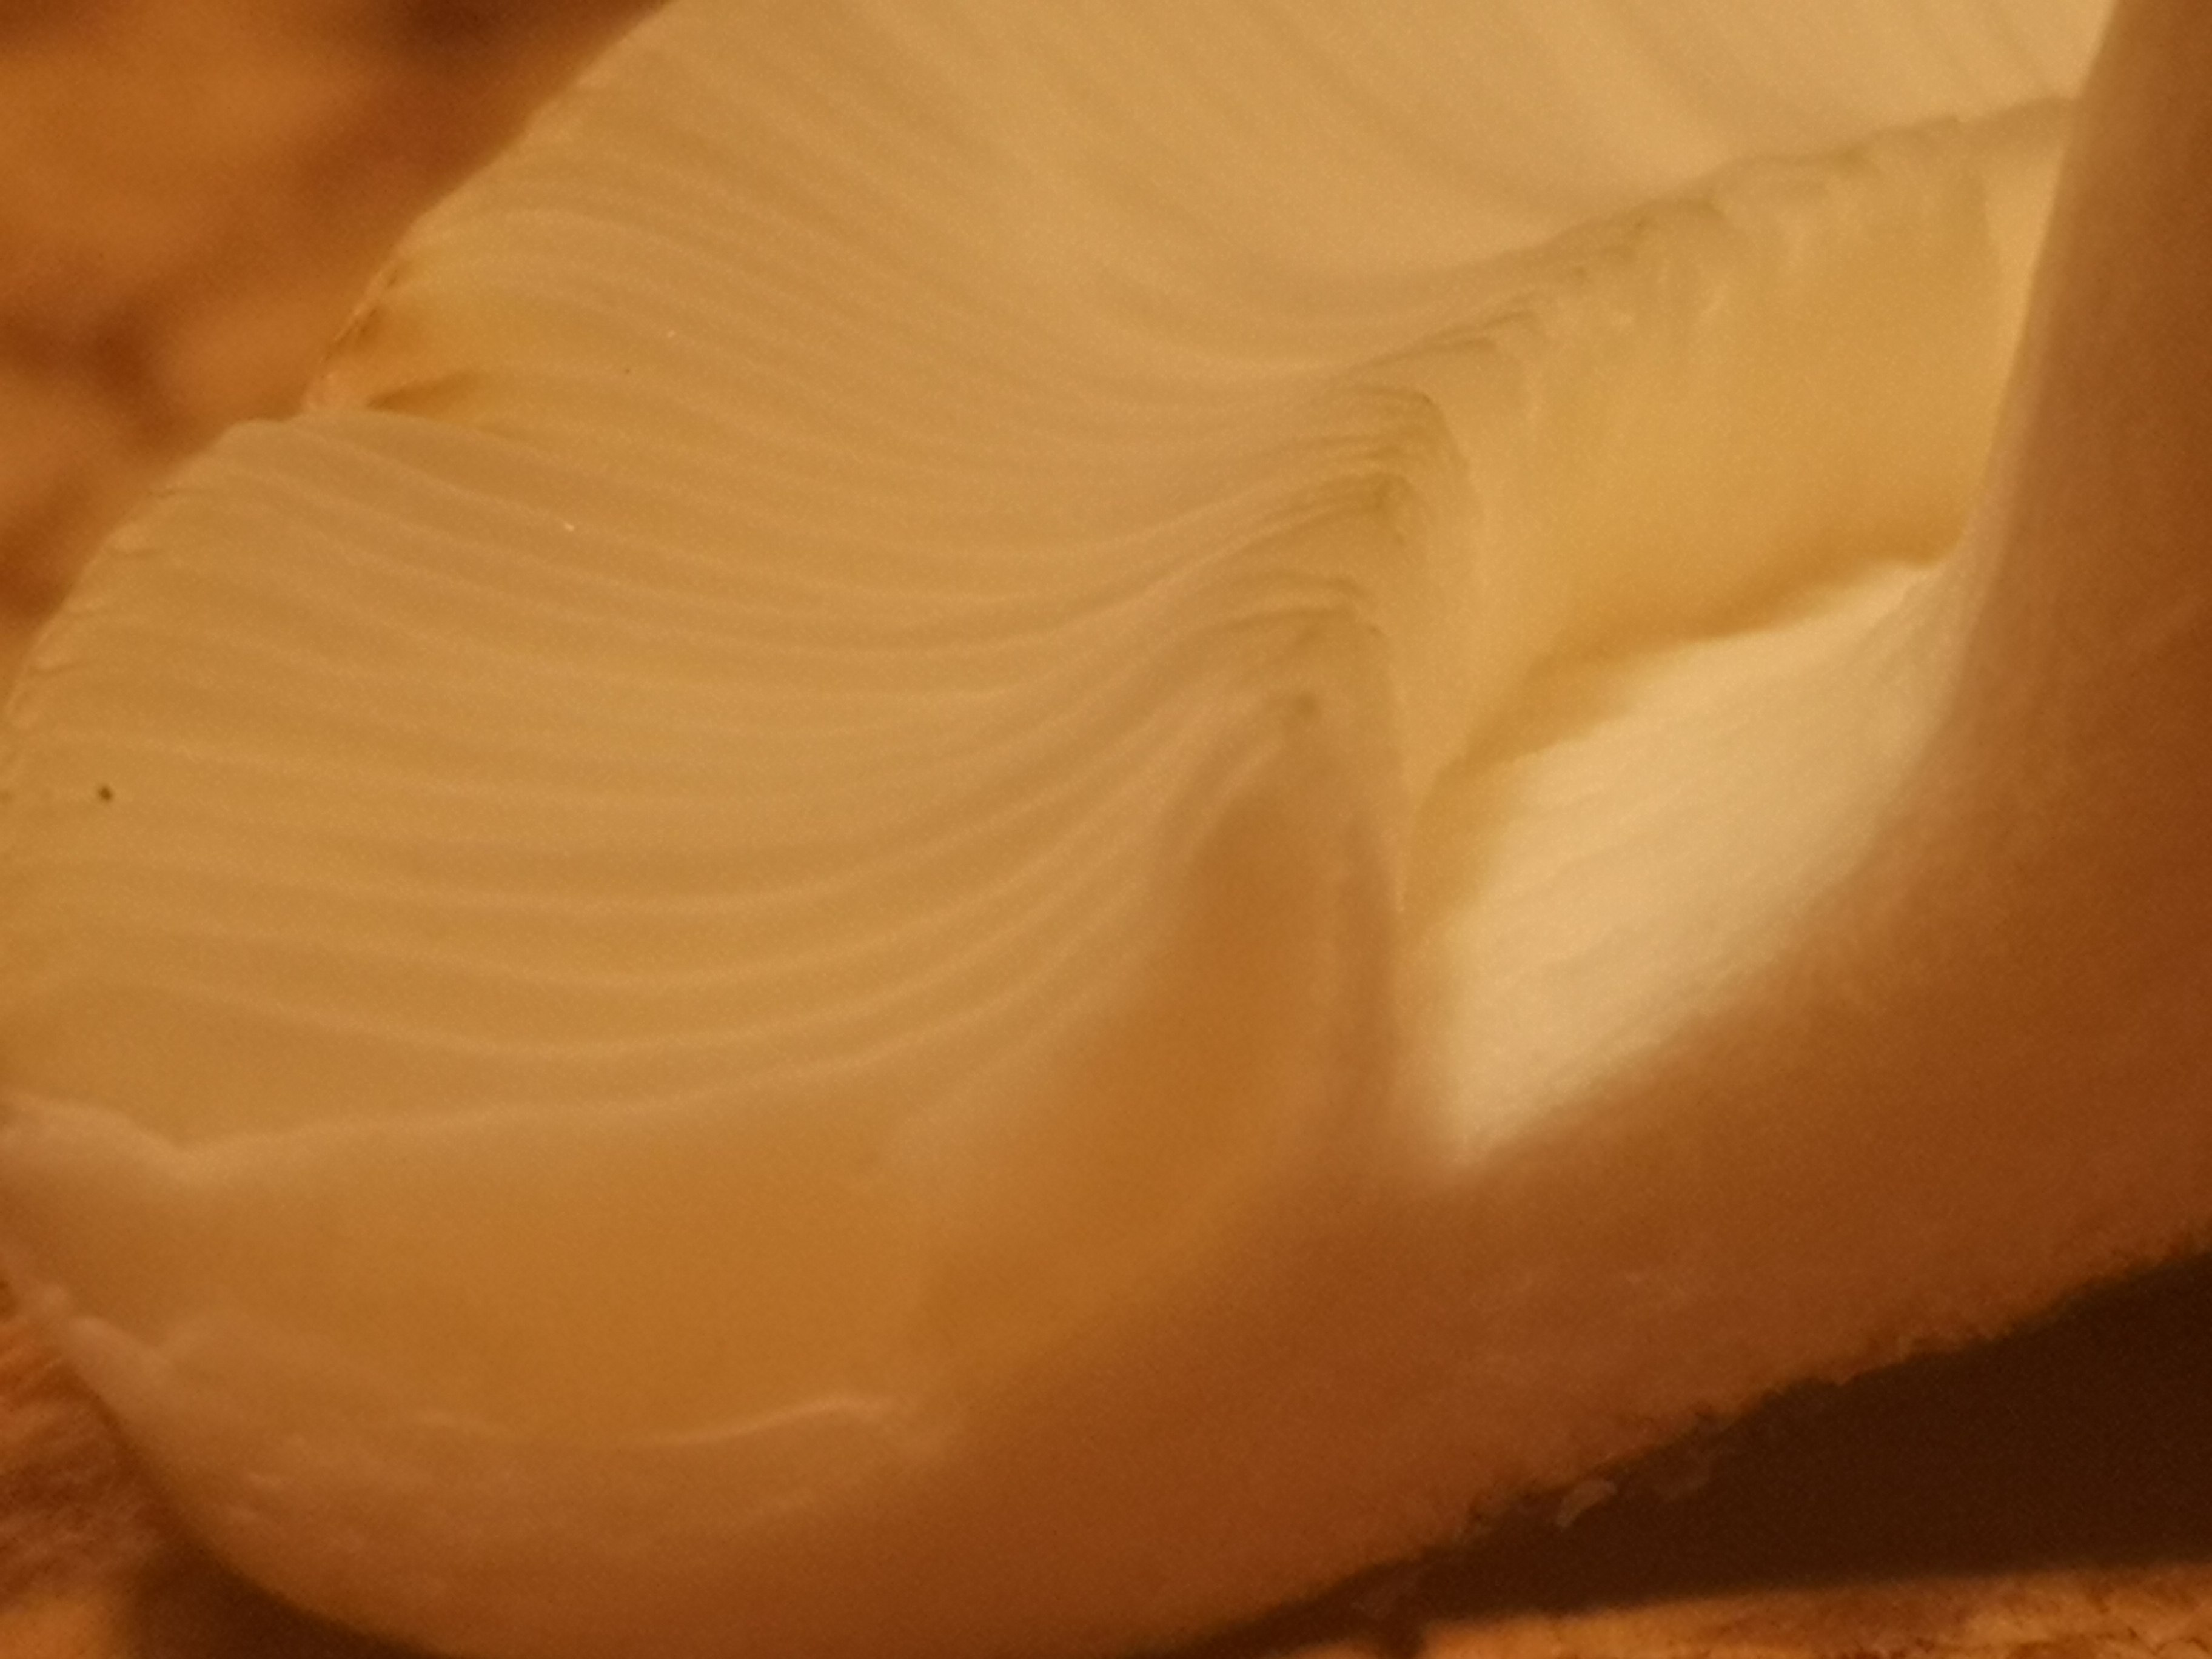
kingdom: Fungi
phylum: Basidiomycota
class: Agaricomycetes
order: Russulales
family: Russulaceae
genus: Russula
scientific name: Russula aeruginea
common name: græsgrøn skørhat
